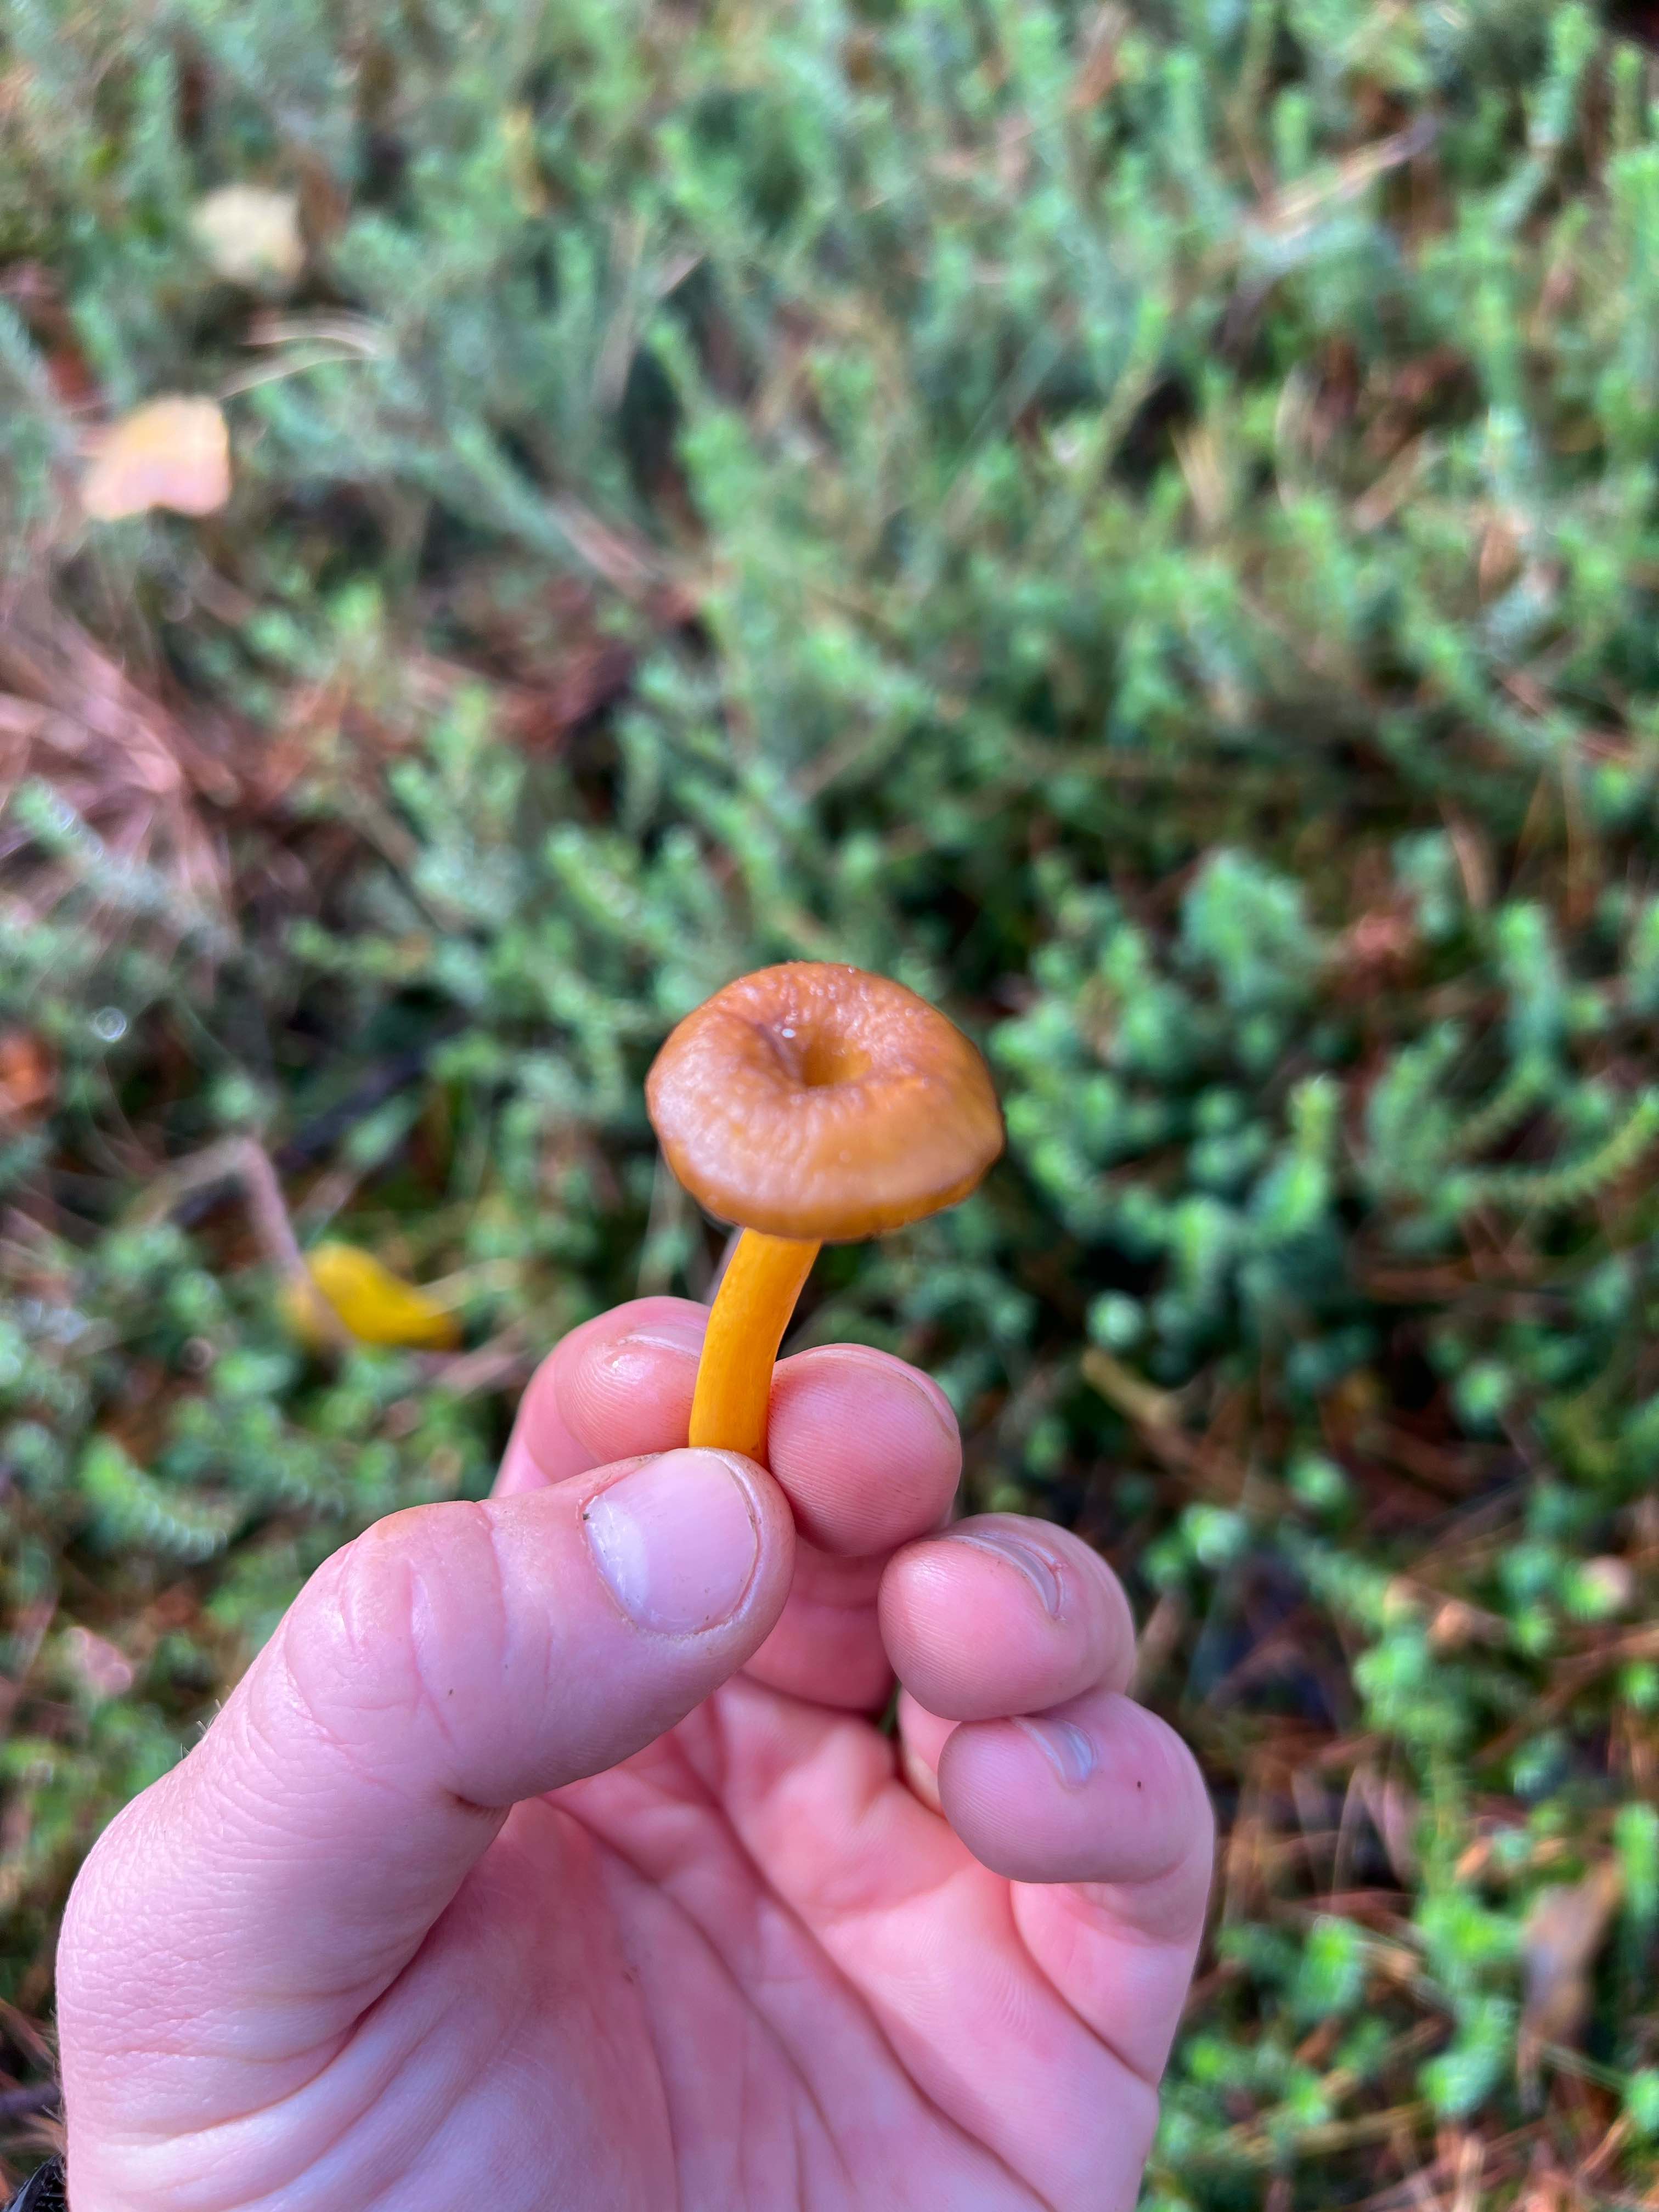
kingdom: Fungi
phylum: Basidiomycota
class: Agaricomycetes
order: Cantharellales
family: Hydnaceae
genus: Craterellus
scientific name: Craterellus tubaeformis
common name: tragt-kantarel
